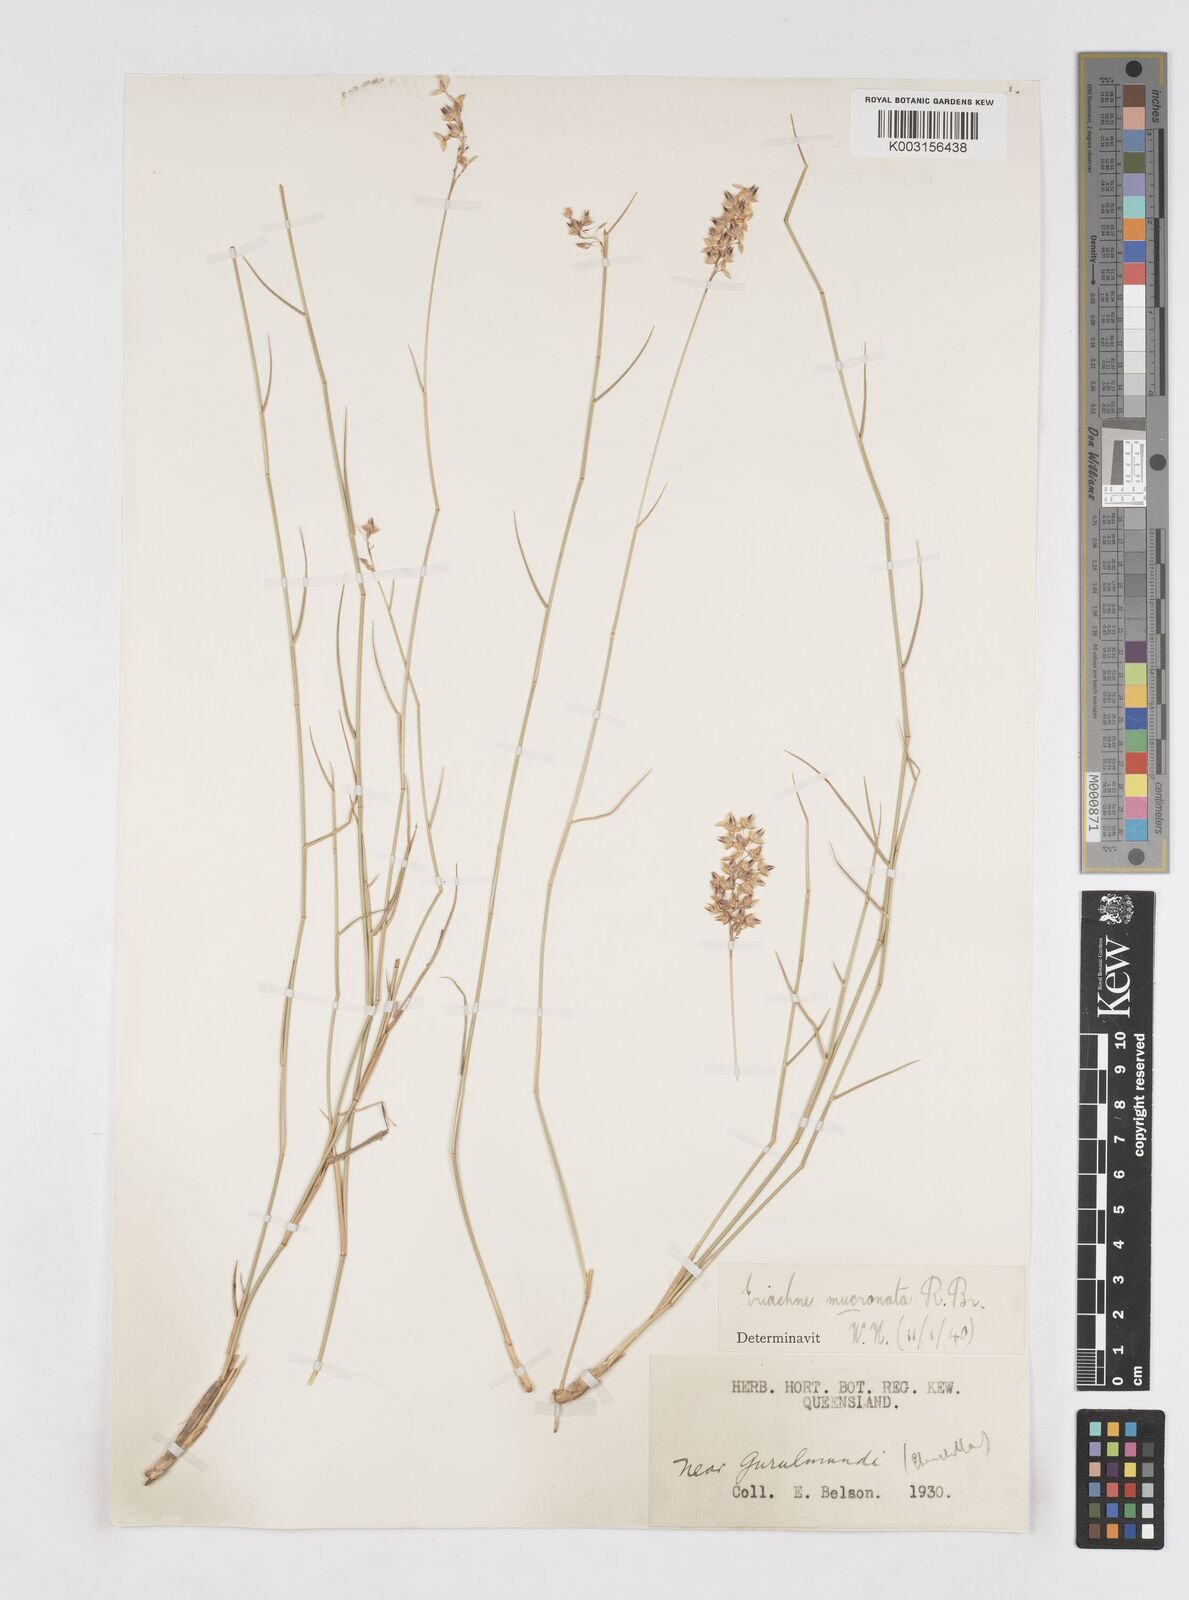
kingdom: Plantae
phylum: Tracheophyta
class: Liliopsida
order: Poales
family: Poaceae
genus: Eriachne
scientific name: Eriachne mucronata
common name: Mountain wanderrie grass
